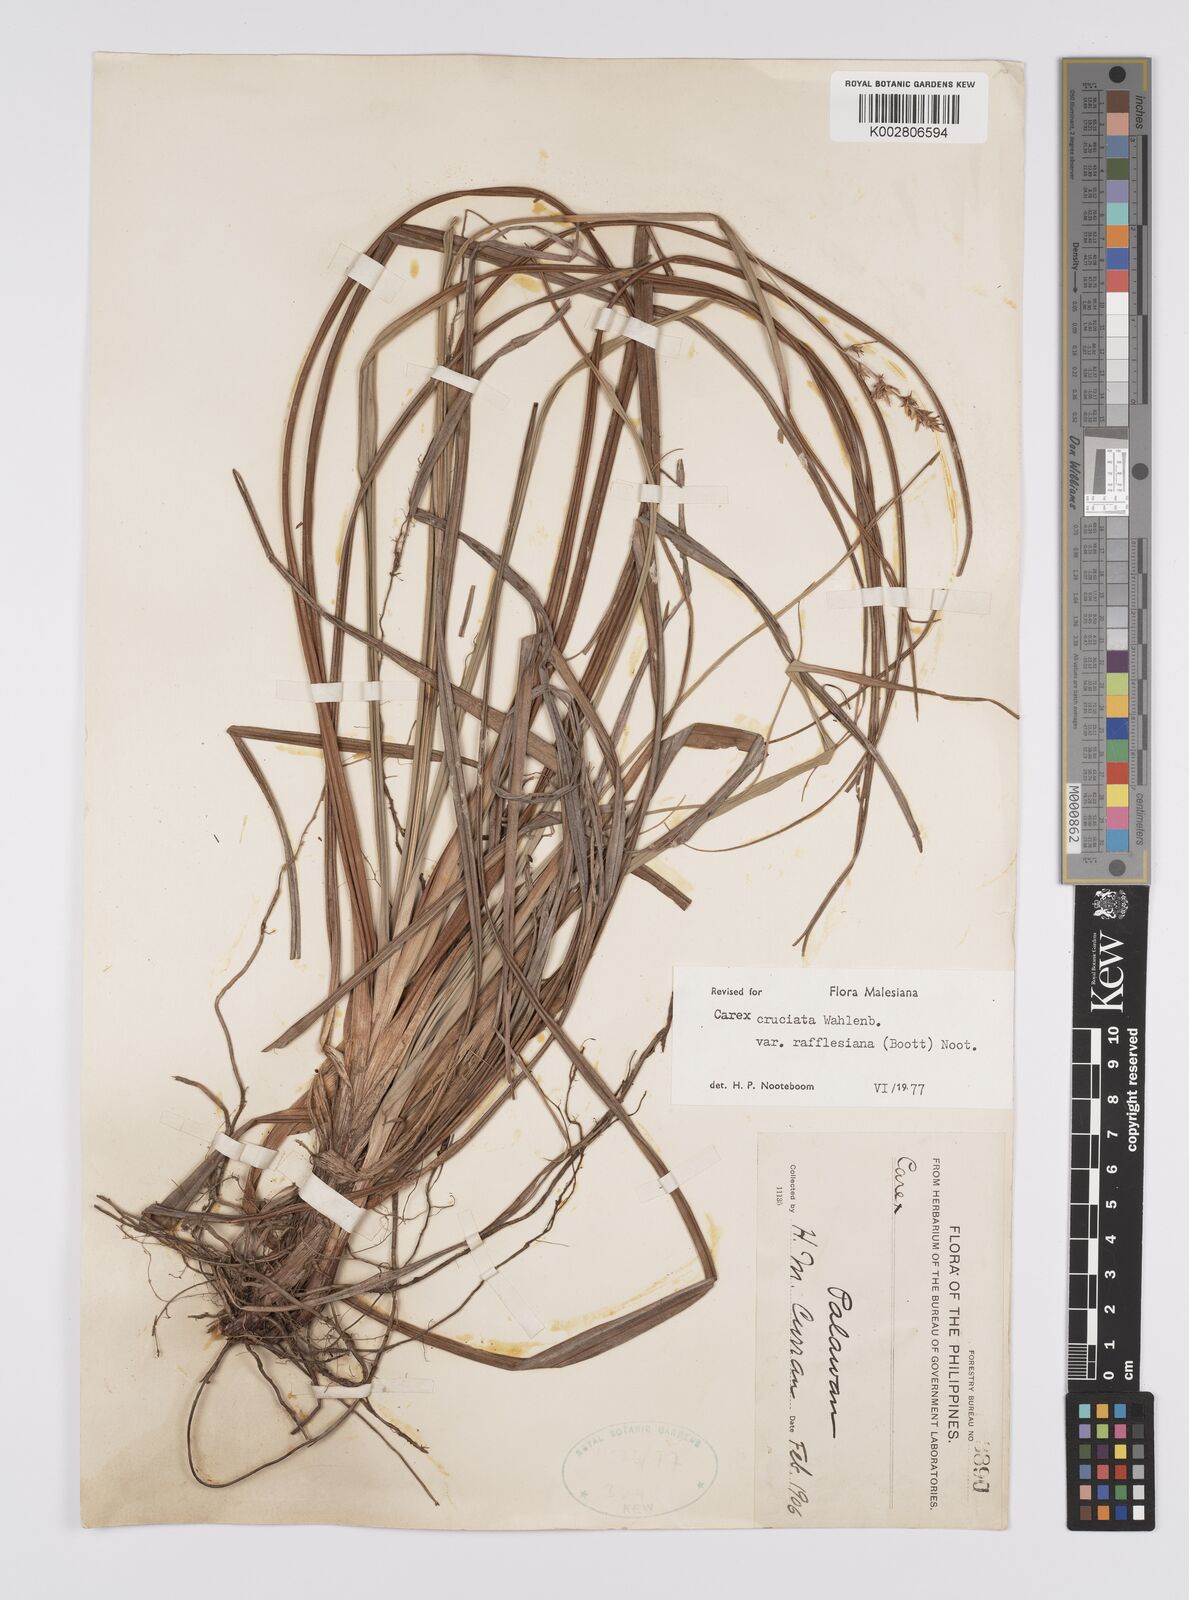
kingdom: Plantae
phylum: Tracheophyta
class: Liliopsida
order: Poales
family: Cyperaceae
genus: Carex
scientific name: Carex rafflesiana
